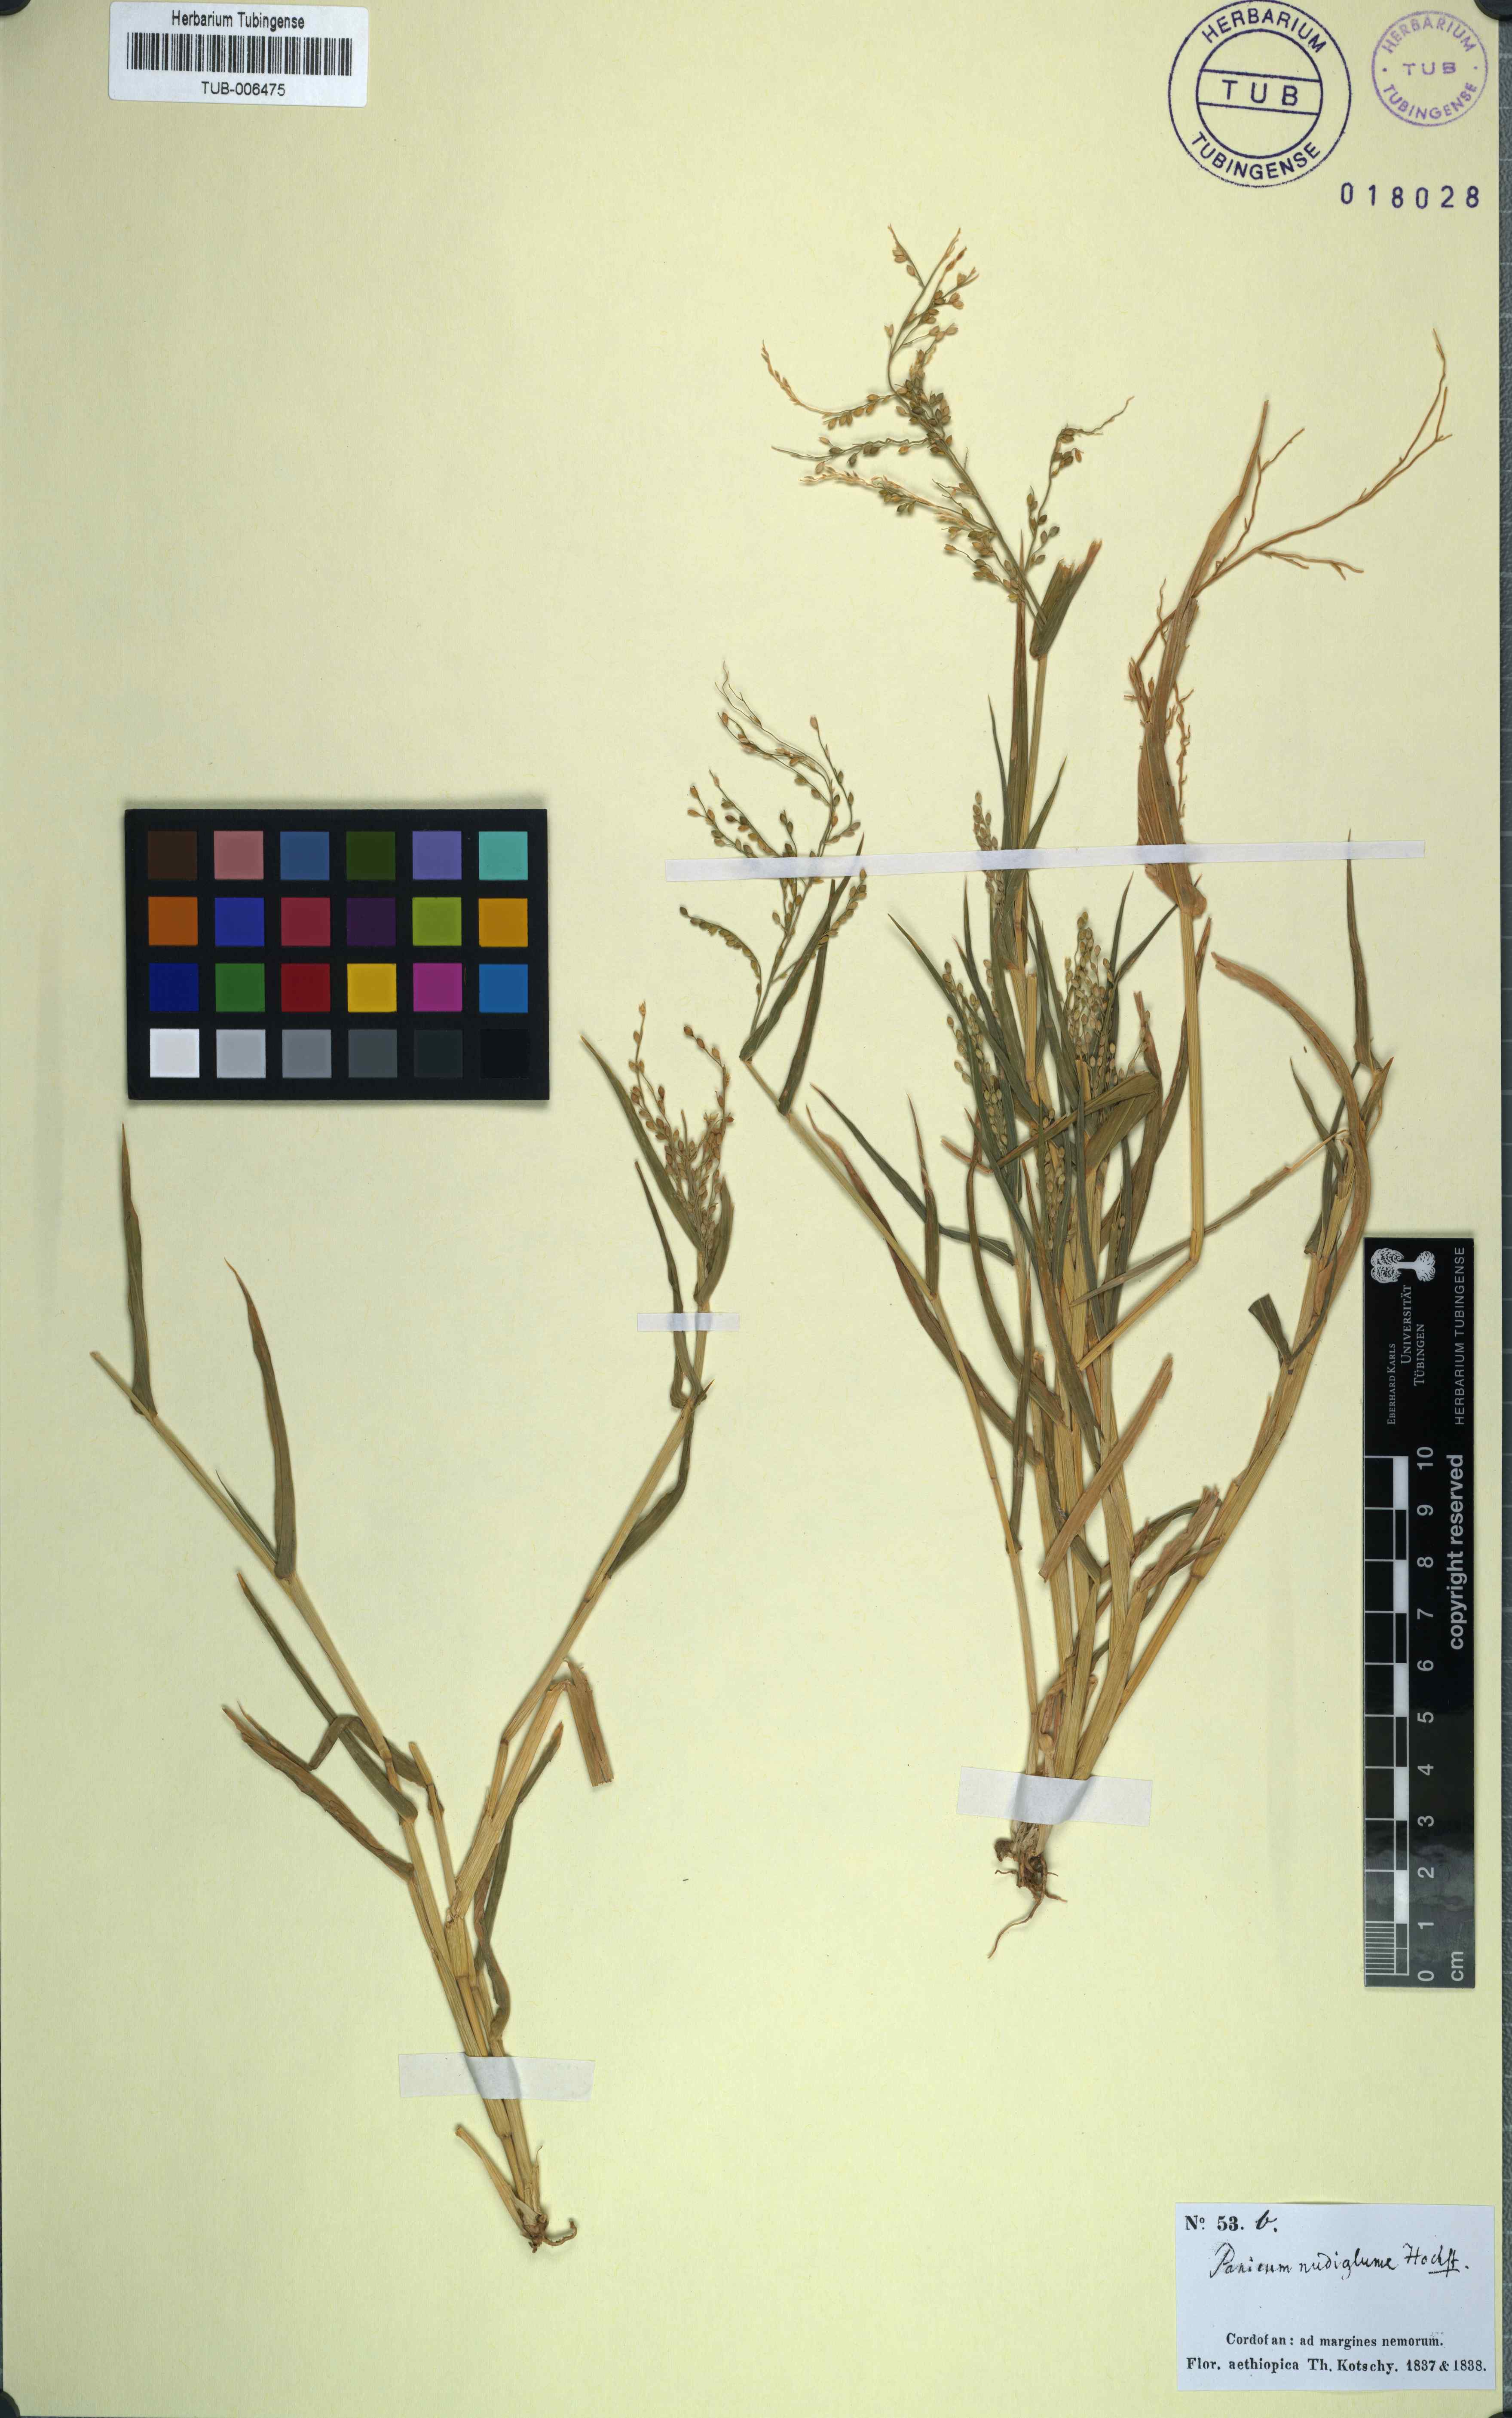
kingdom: Plantae
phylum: Tracheophyta
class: Liliopsida
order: Poales
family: Poaceae
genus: Urochloa
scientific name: Urochloa ramosa
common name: Browntop millet
